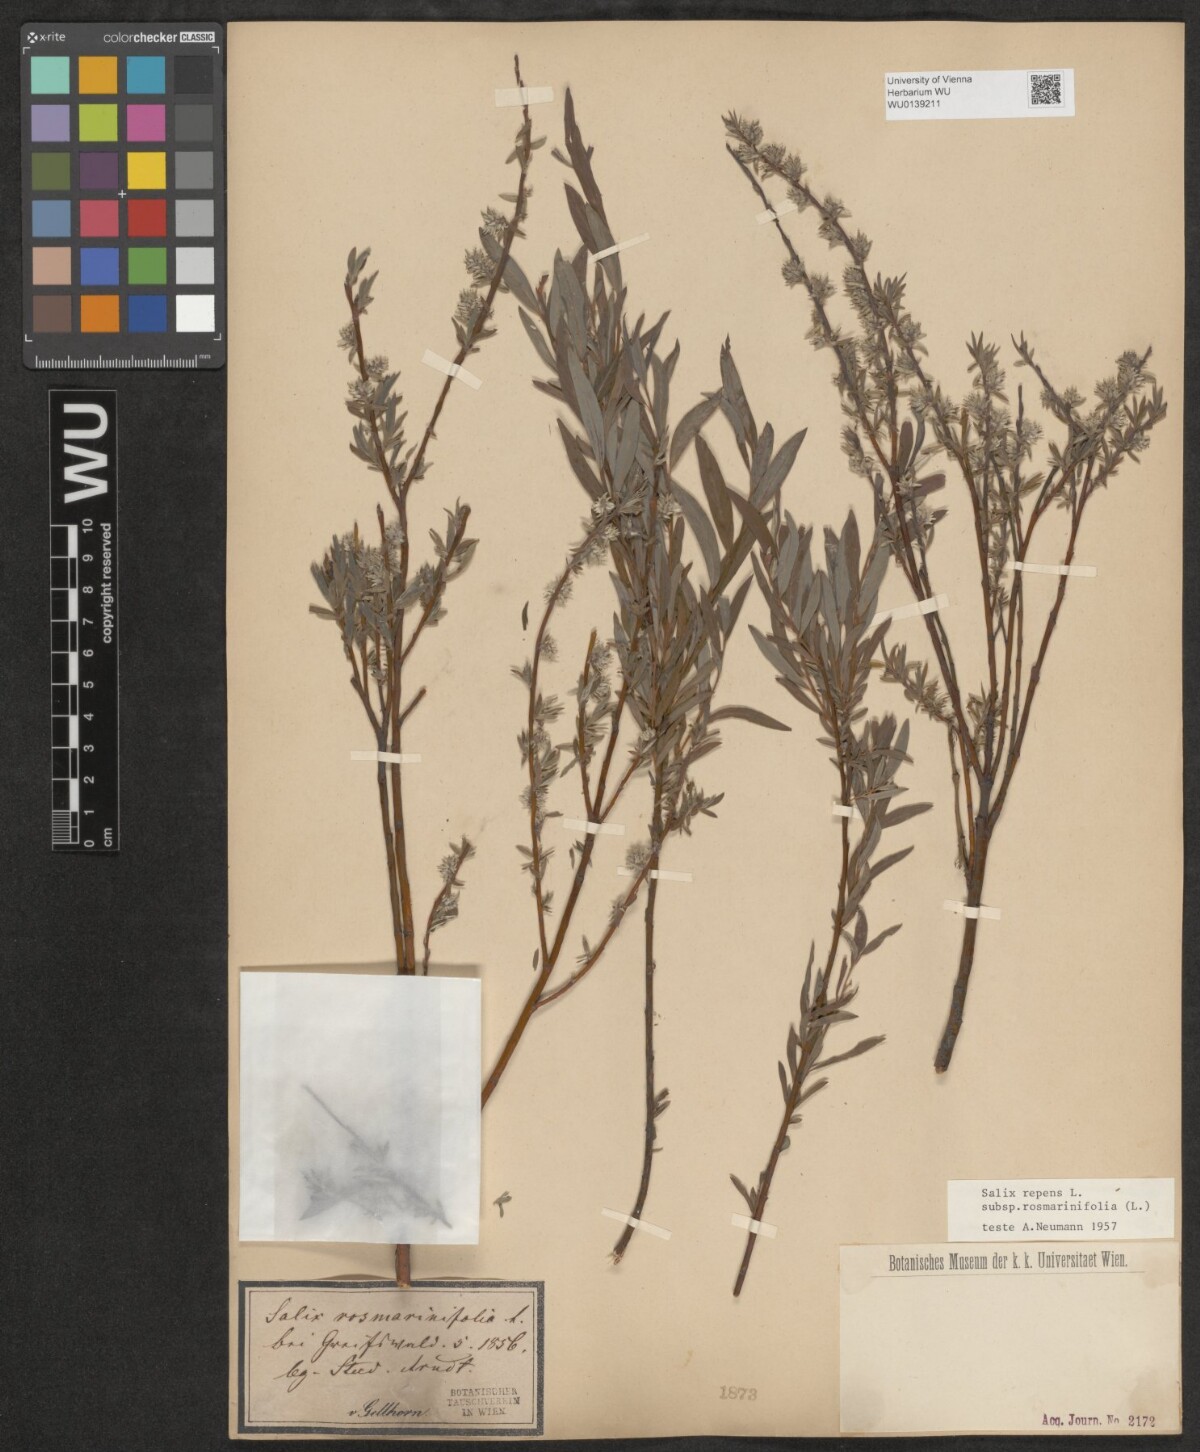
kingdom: Plantae
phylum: Tracheophyta
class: Magnoliopsida
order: Malpighiales
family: Salicaceae
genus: Salix
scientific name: Salix repens
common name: Creeping willow
